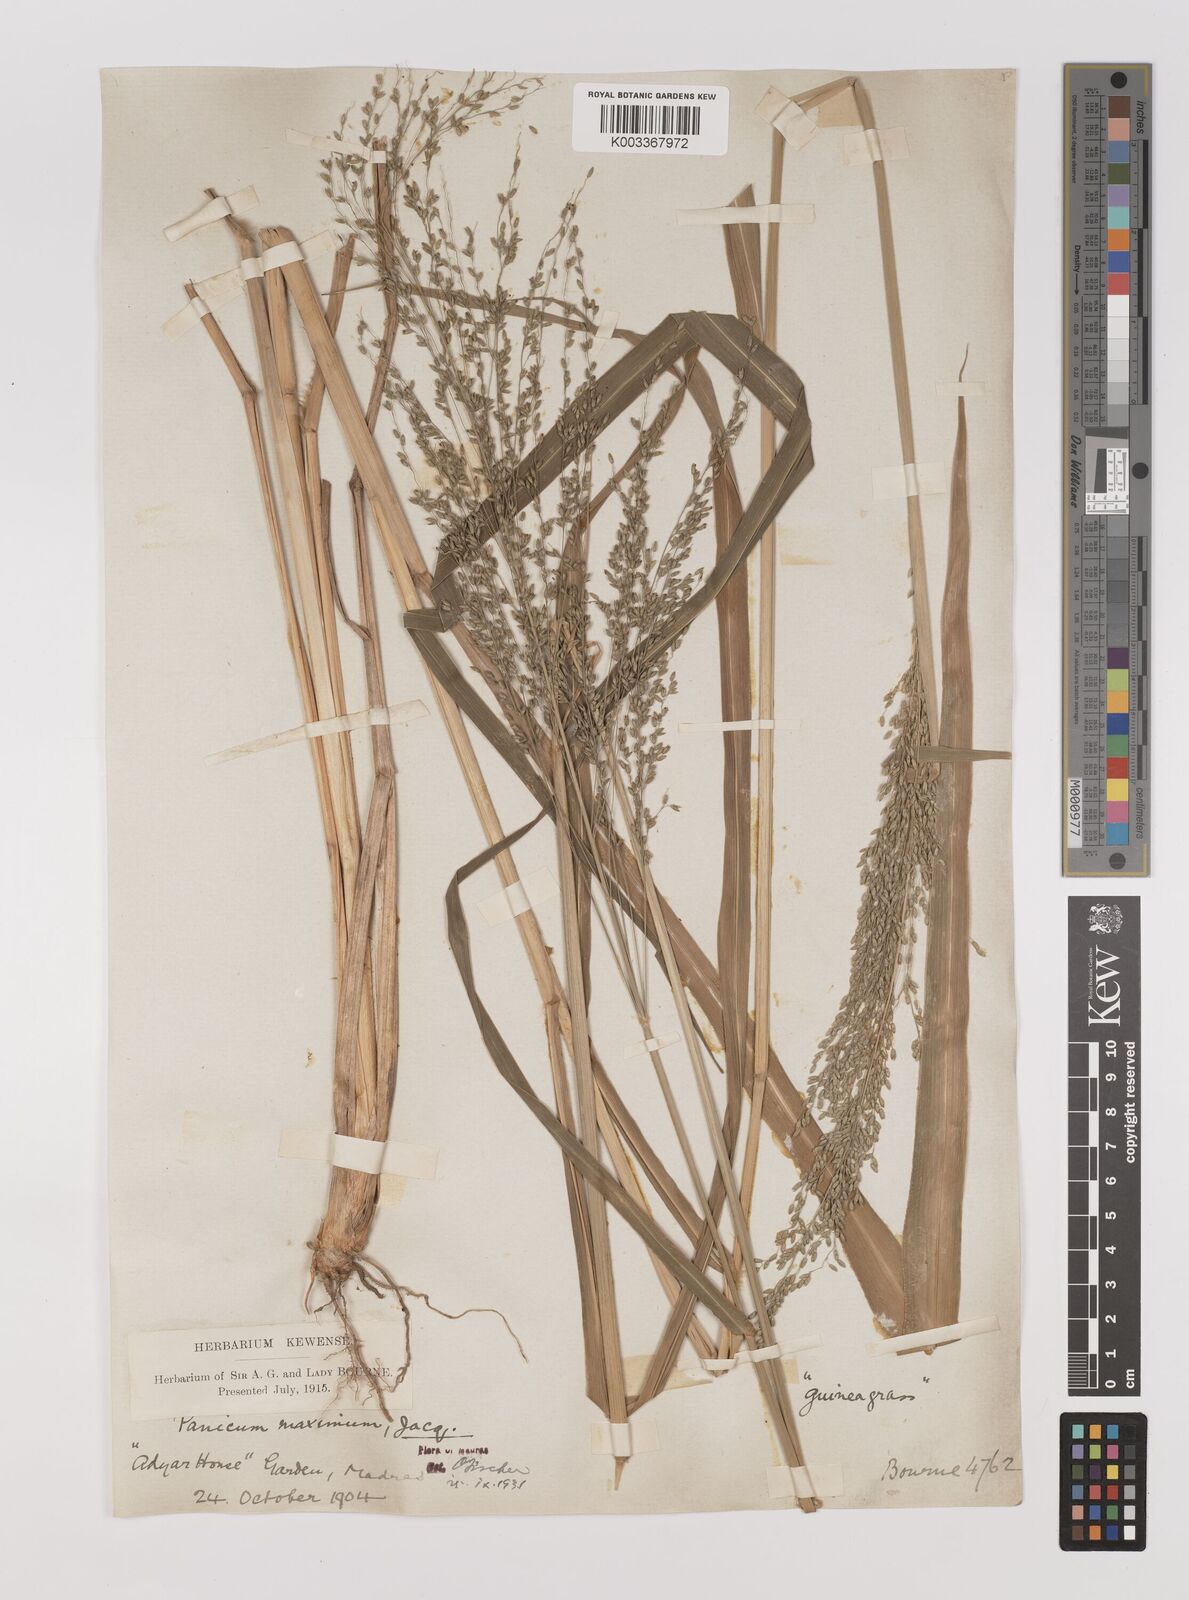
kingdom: Plantae
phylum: Tracheophyta
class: Liliopsida
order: Poales
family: Poaceae
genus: Megathyrsus
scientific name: Megathyrsus maximus
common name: Guineagrass
